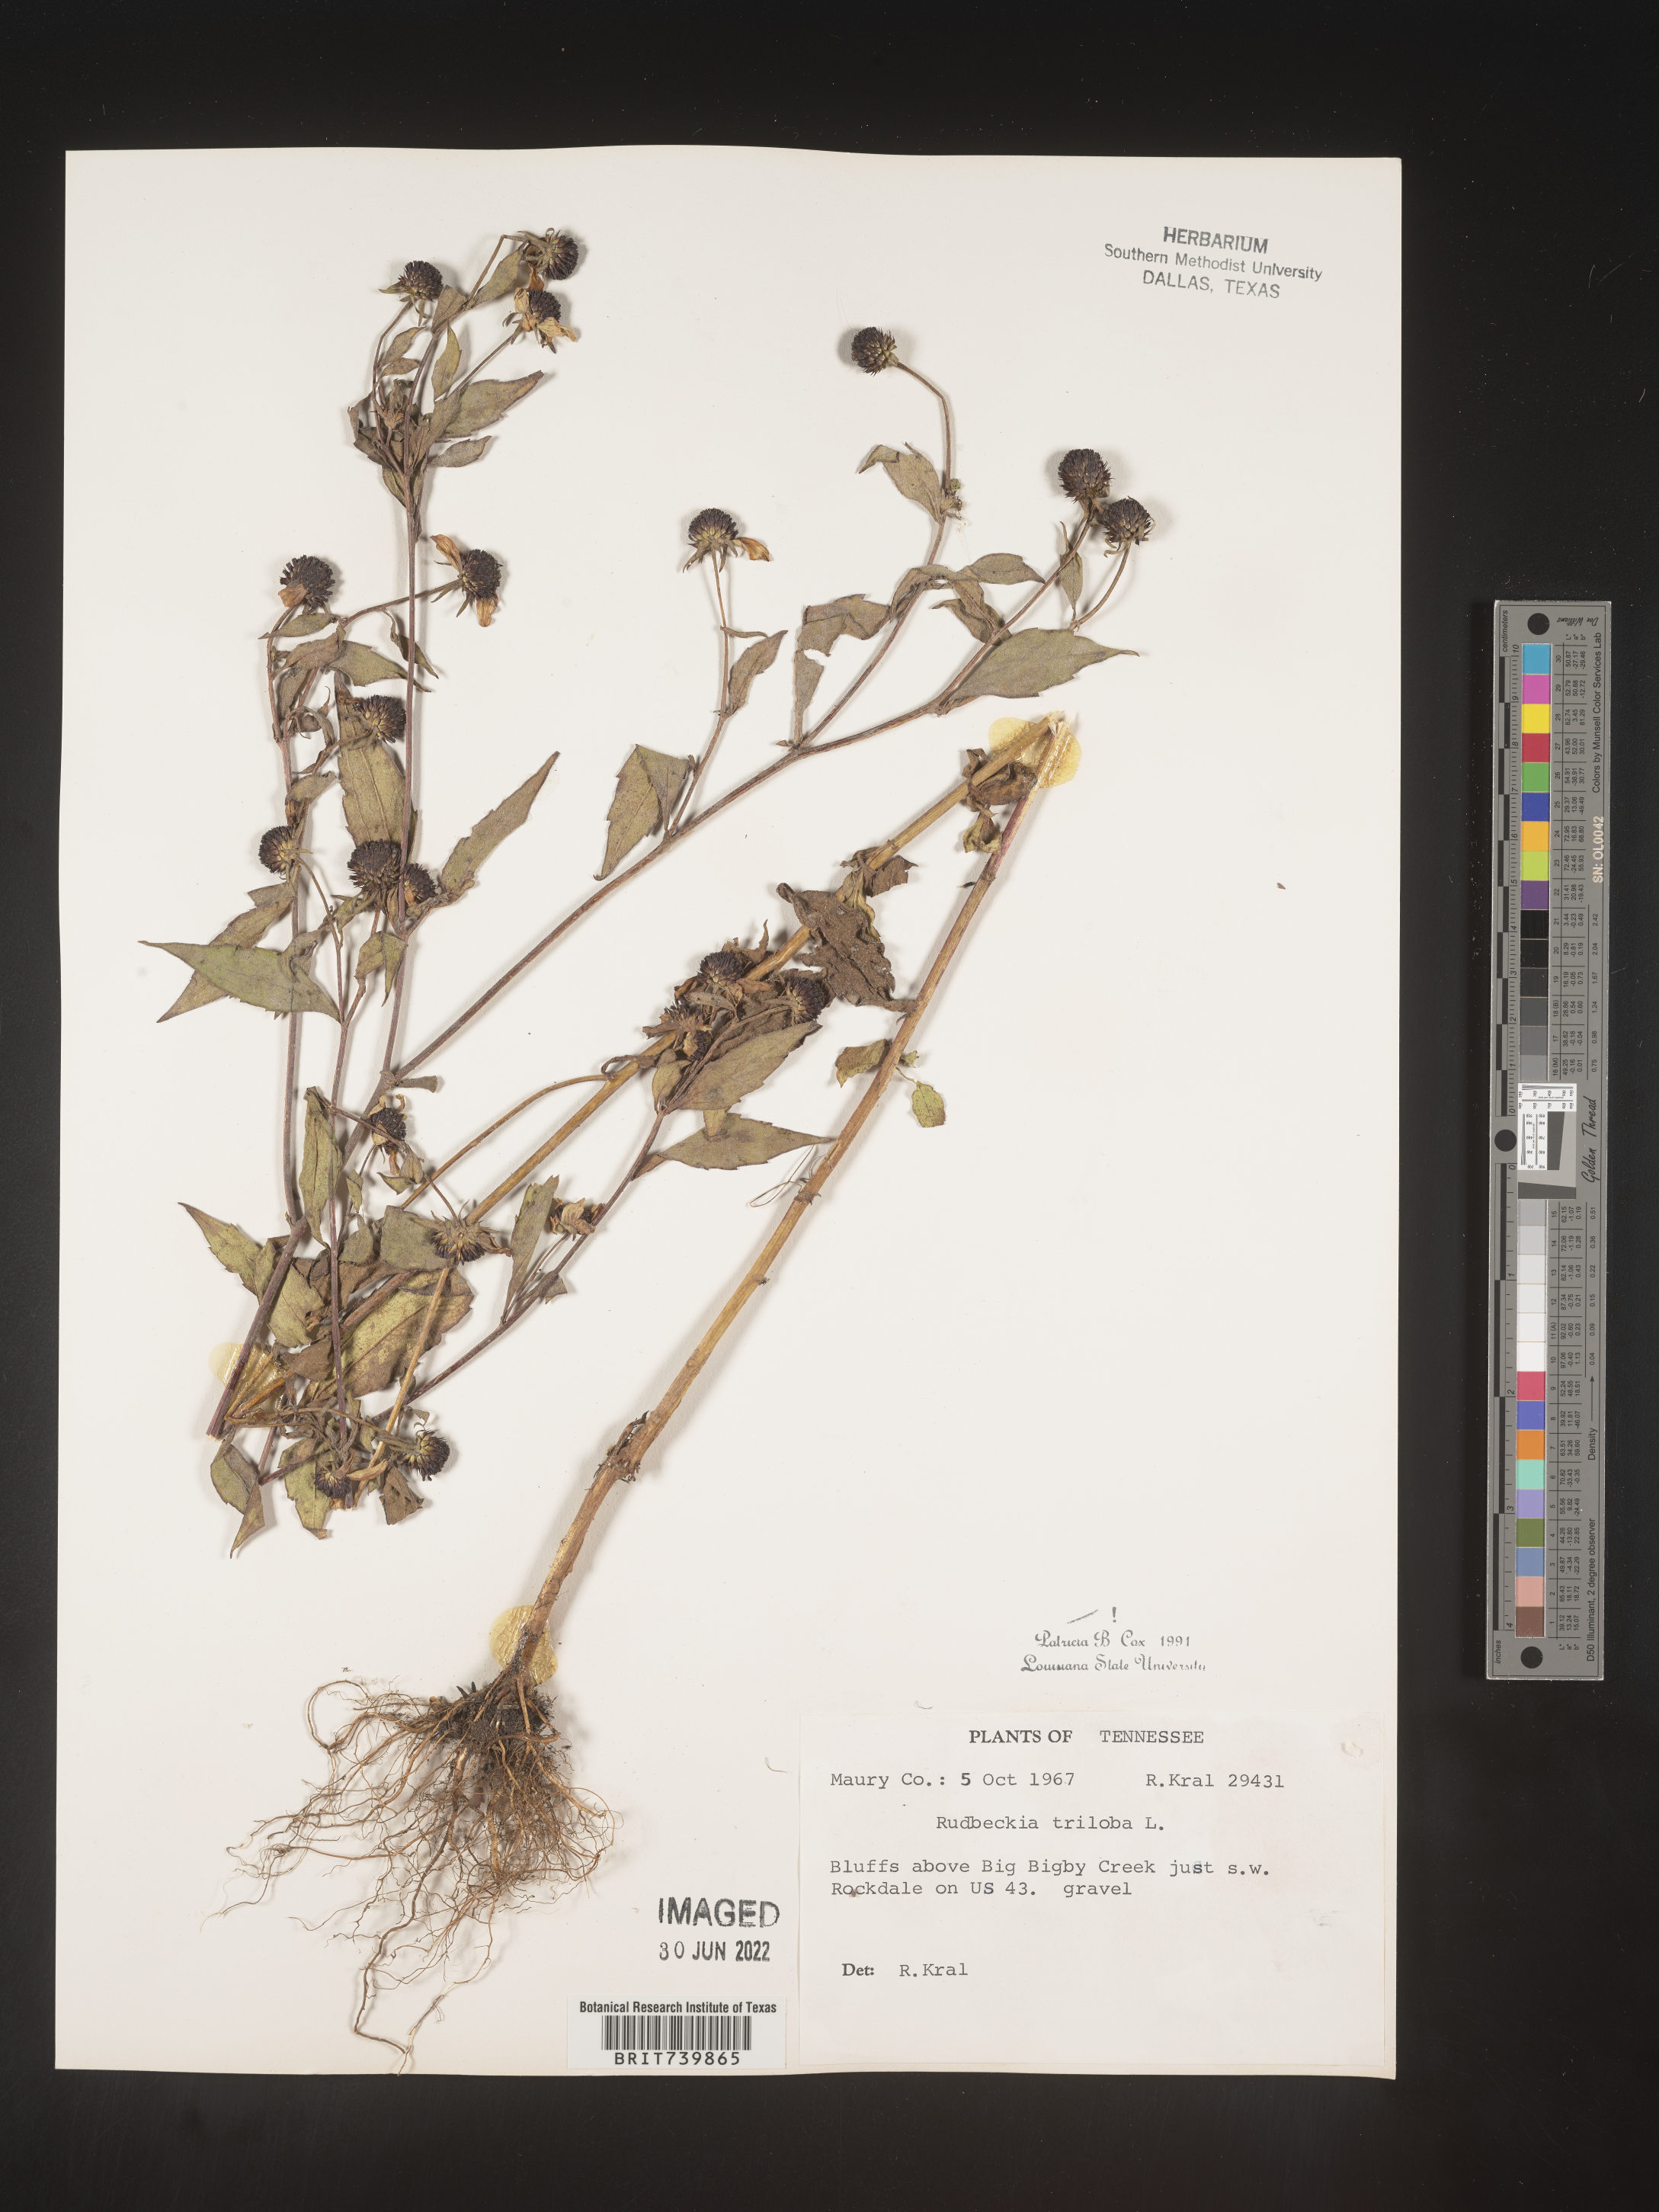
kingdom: Plantae
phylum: Tracheophyta
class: Magnoliopsida
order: Asterales
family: Asteraceae
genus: Rudbeckia
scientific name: Rudbeckia triloba
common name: Thin-leaved coneflower
